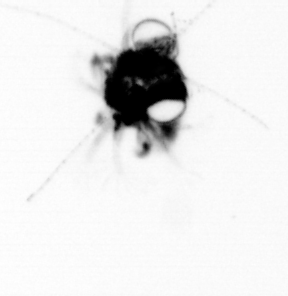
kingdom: Animalia
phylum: Arthropoda
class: Malacostraca
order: Decapoda
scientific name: Decapoda
